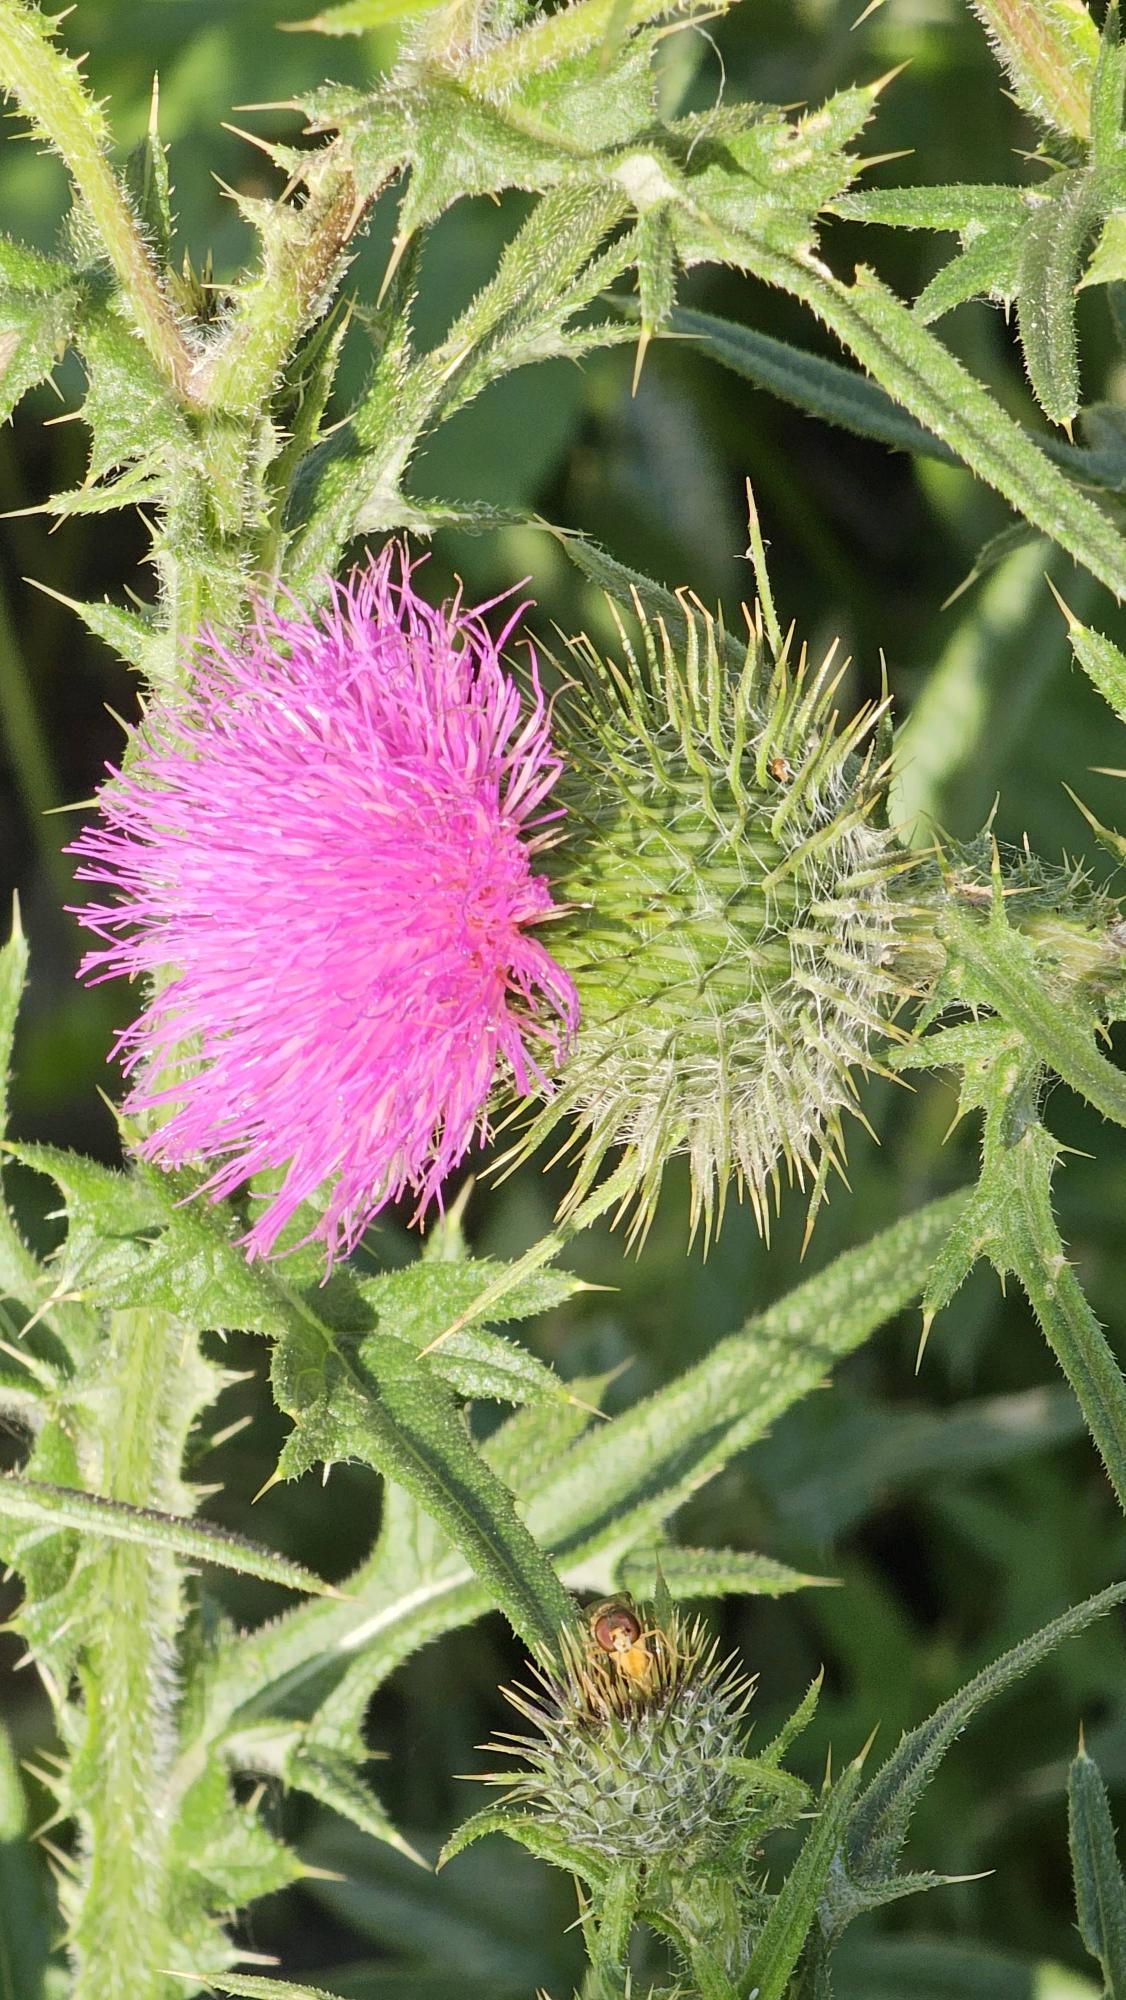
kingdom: Plantae
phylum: Tracheophyta
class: Magnoliopsida
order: Asterales
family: Asteraceae
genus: Cirsium
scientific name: Cirsium vulgare
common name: Horse-tidsel
